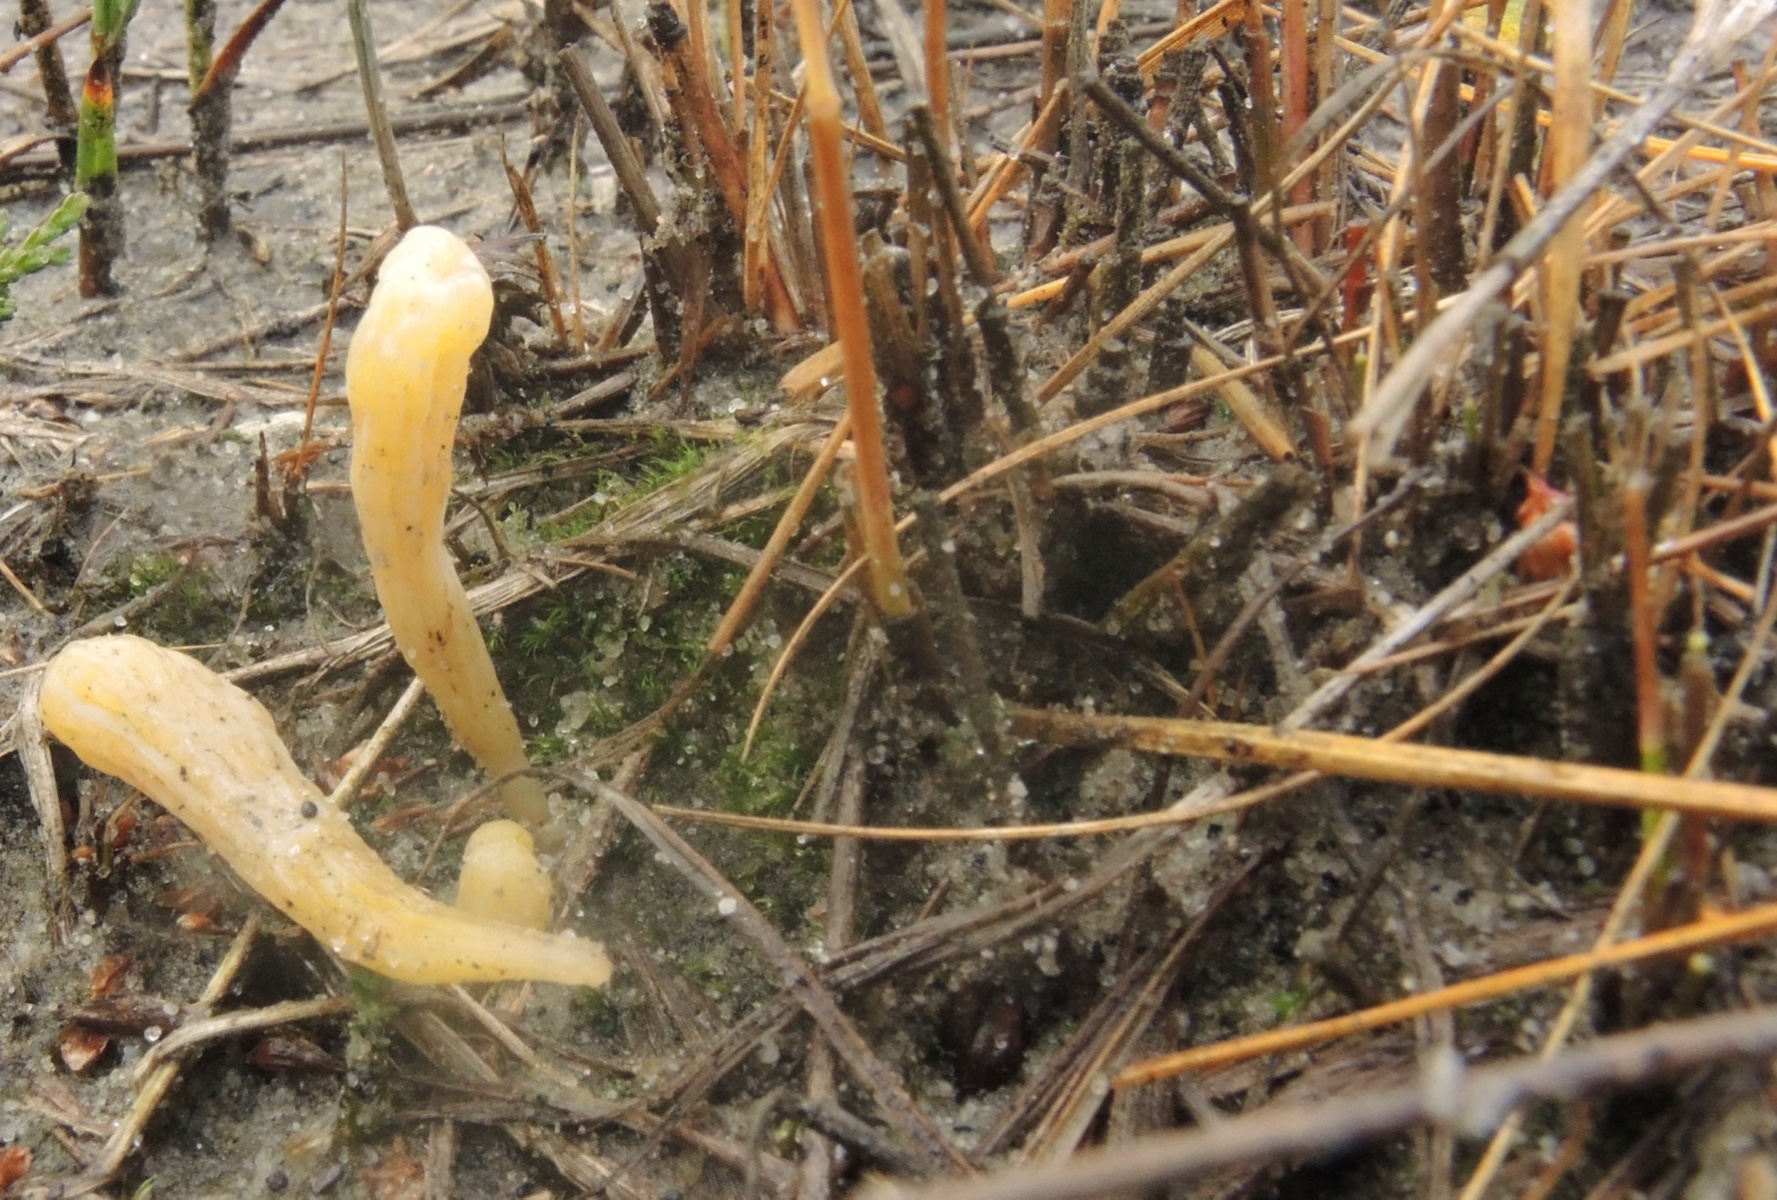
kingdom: Fungi
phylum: Basidiomycota
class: Agaricomycetes
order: Agaricales
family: Clavariaceae
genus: Clavaria
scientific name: Clavaria argillacea
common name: lerfarvet køllesvamp
